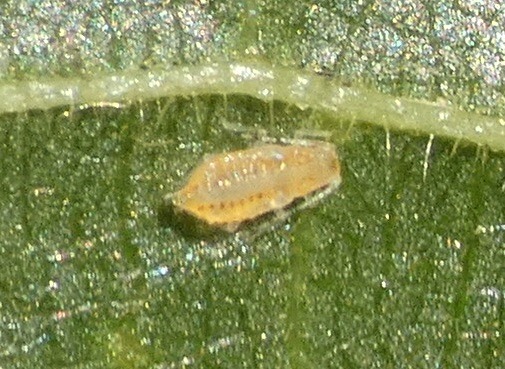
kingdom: Animalia
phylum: Arthropoda
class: Insecta
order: Hemiptera
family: Aphididae
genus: Eucallipterus
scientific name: Eucallipterus tiliae
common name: Lindebladlus
